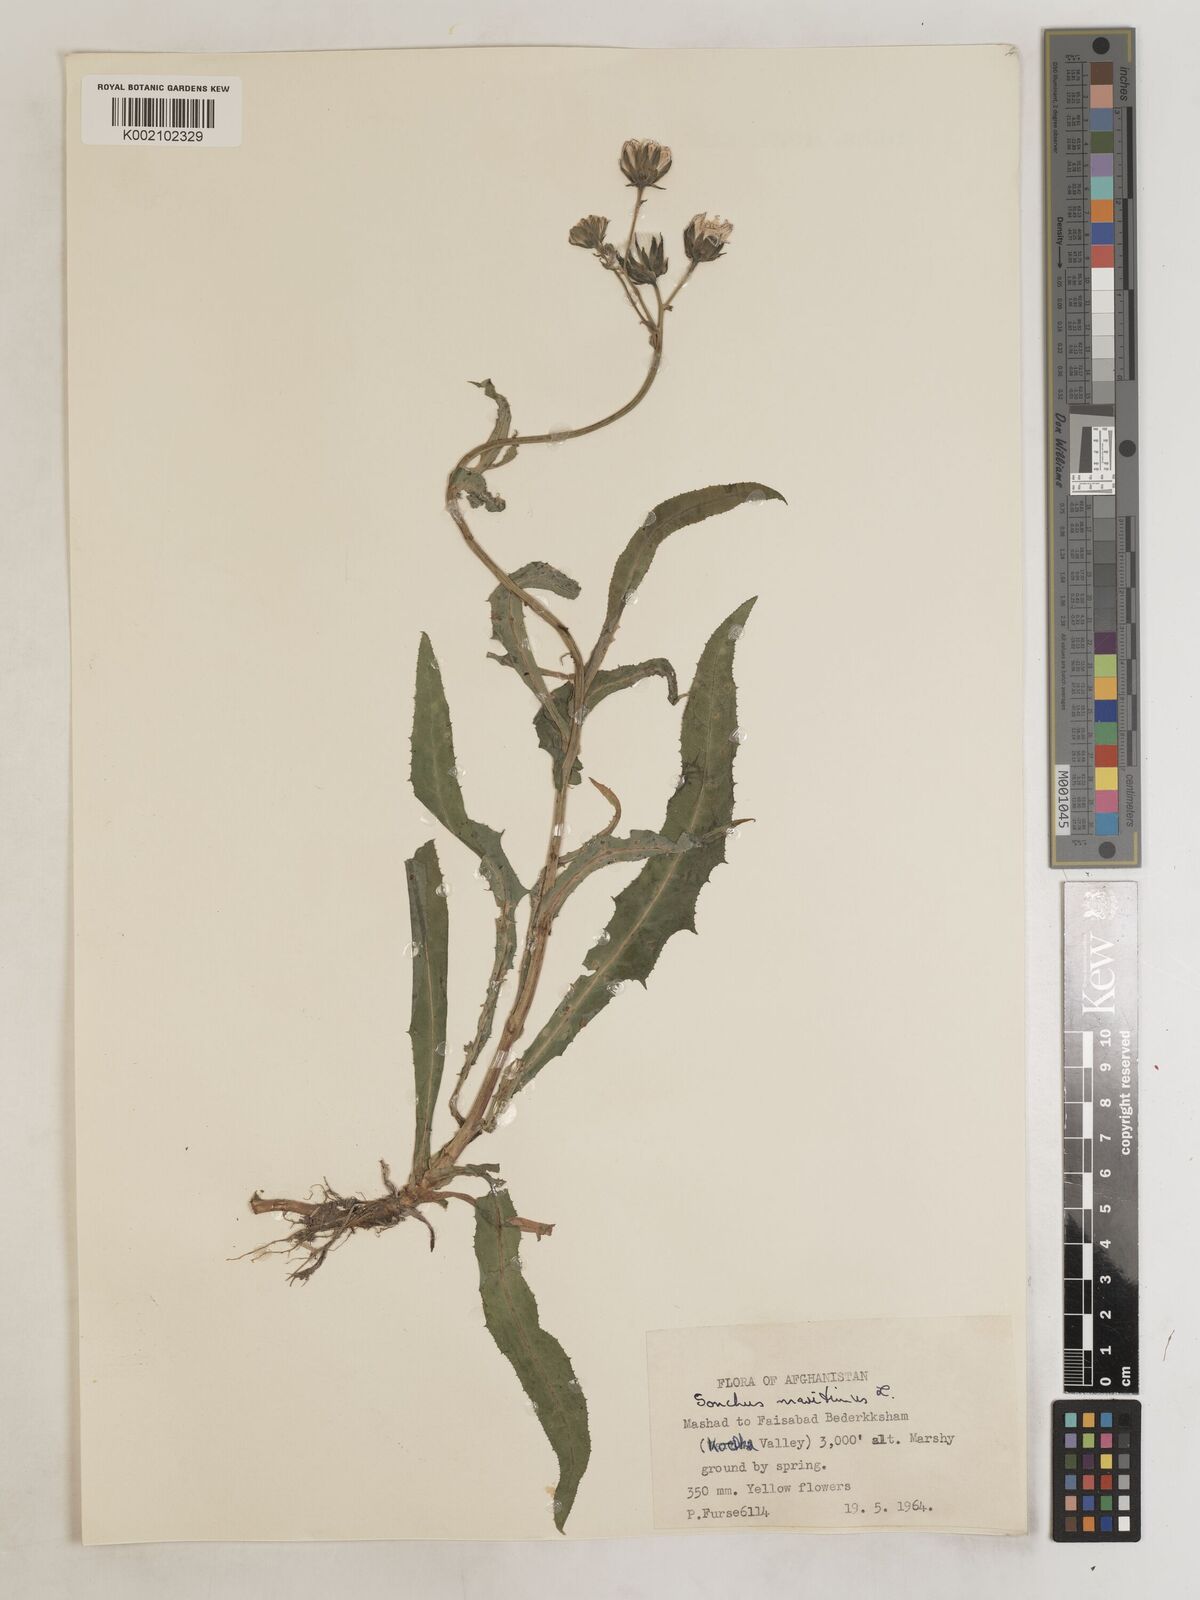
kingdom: Plantae
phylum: Tracheophyta
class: Magnoliopsida
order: Asterales
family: Asteraceae
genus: Sonchus
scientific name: Sonchus maritimus
